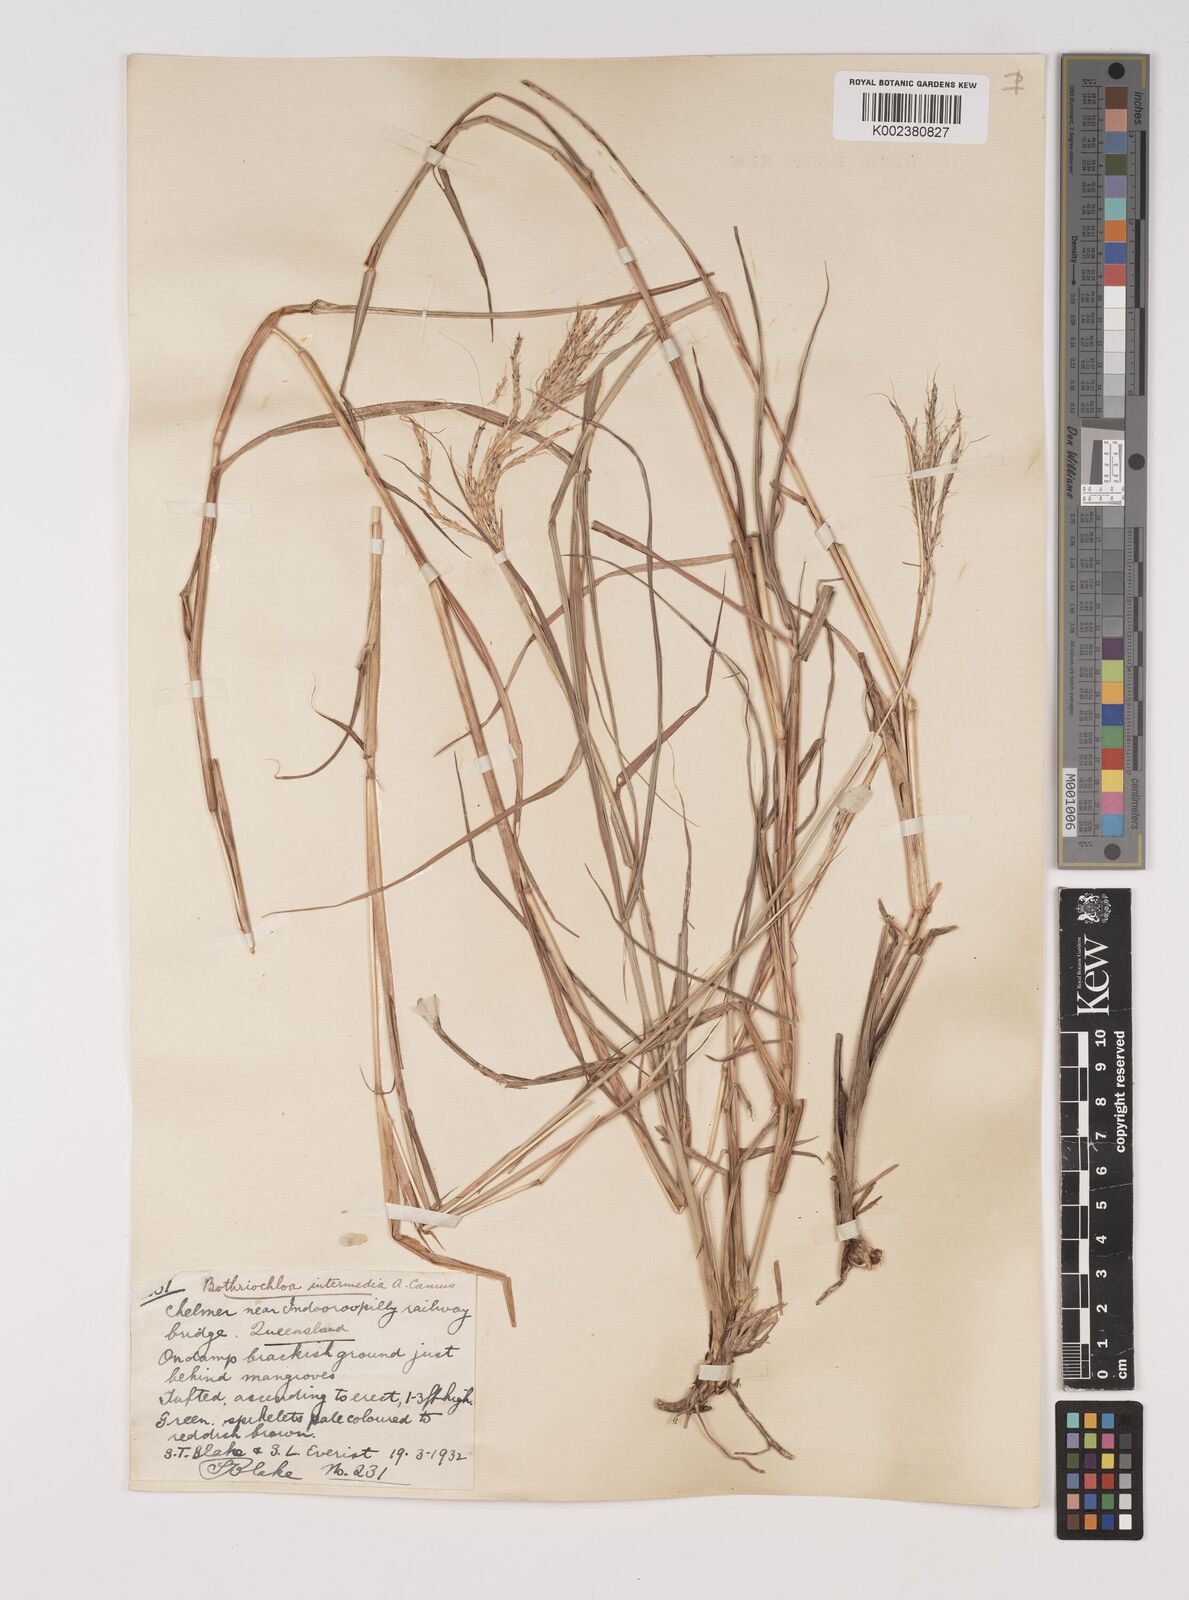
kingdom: Plantae
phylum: Tracheophyta
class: Liliopsida
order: Poales
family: Poaceae
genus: Bothriochloa
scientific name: Bothriochloa bladhii
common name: Caucasian bluestem
